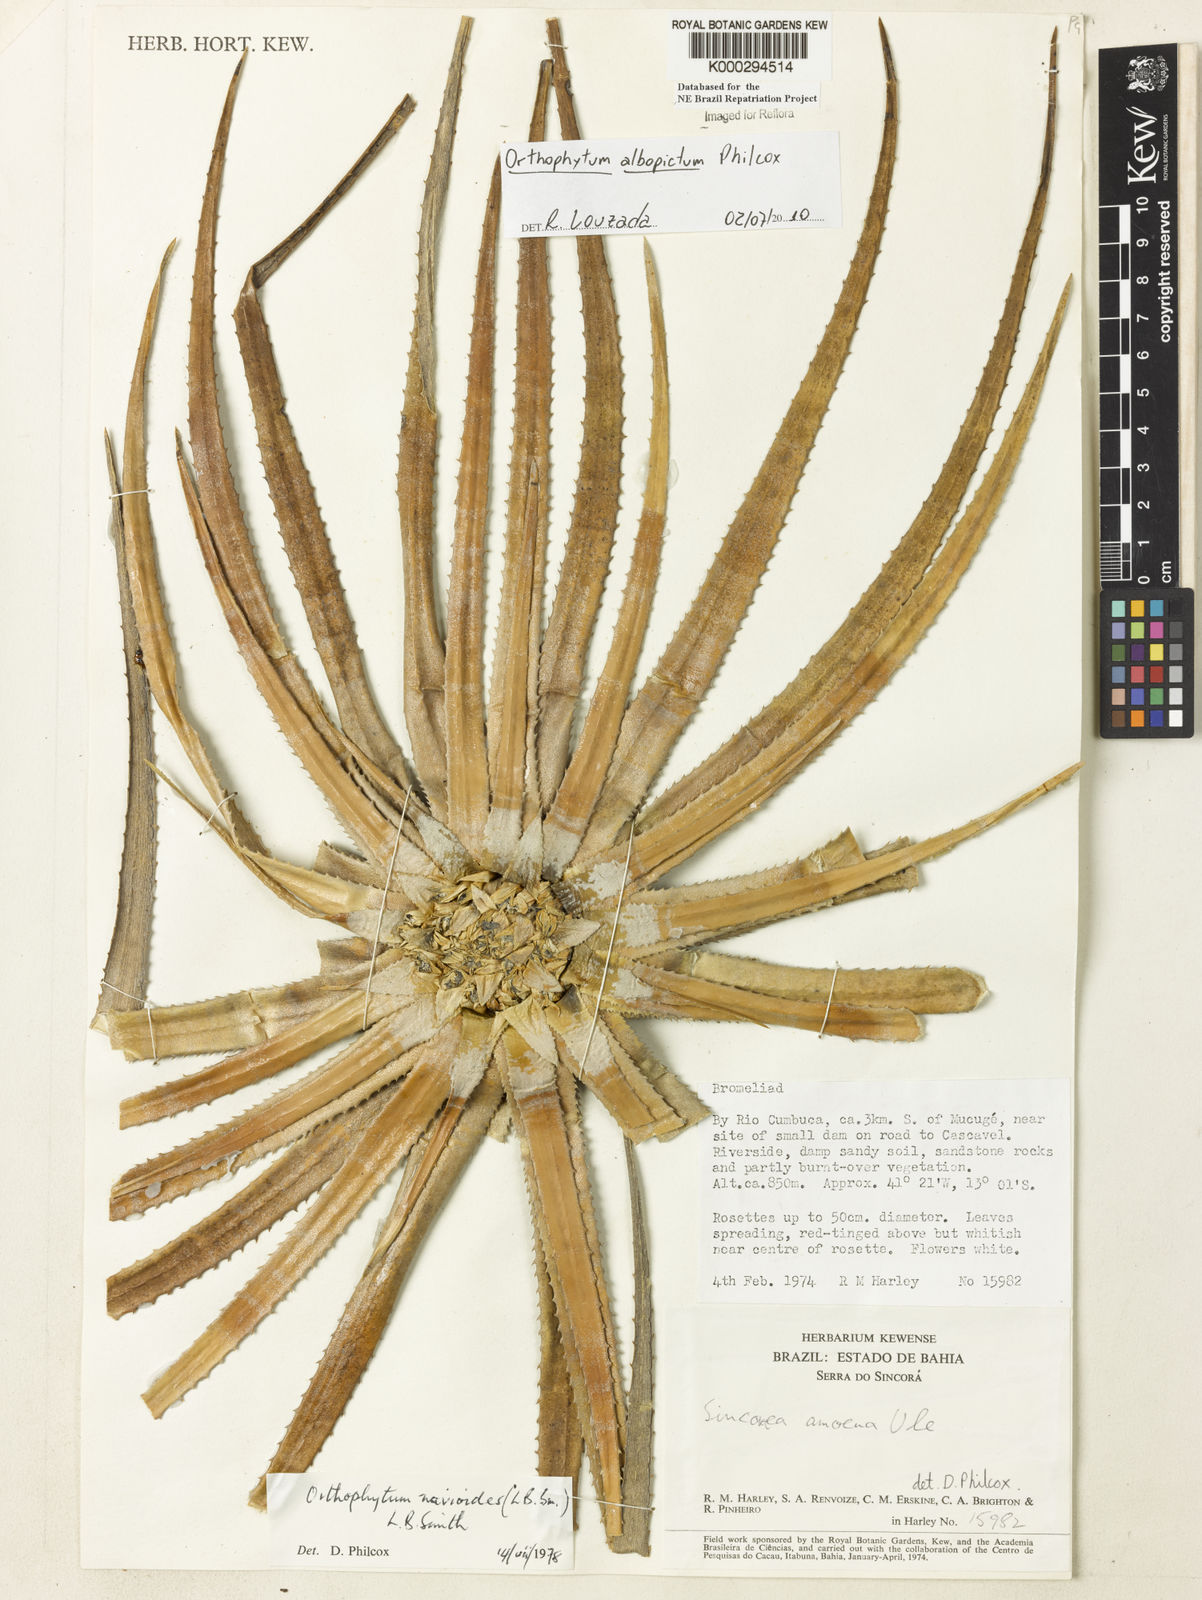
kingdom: Plantae
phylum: Tracheophyta
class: Liliopsida
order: Poales
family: Bromeliaceae
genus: Sincoraea
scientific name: Sincoraea navioides
